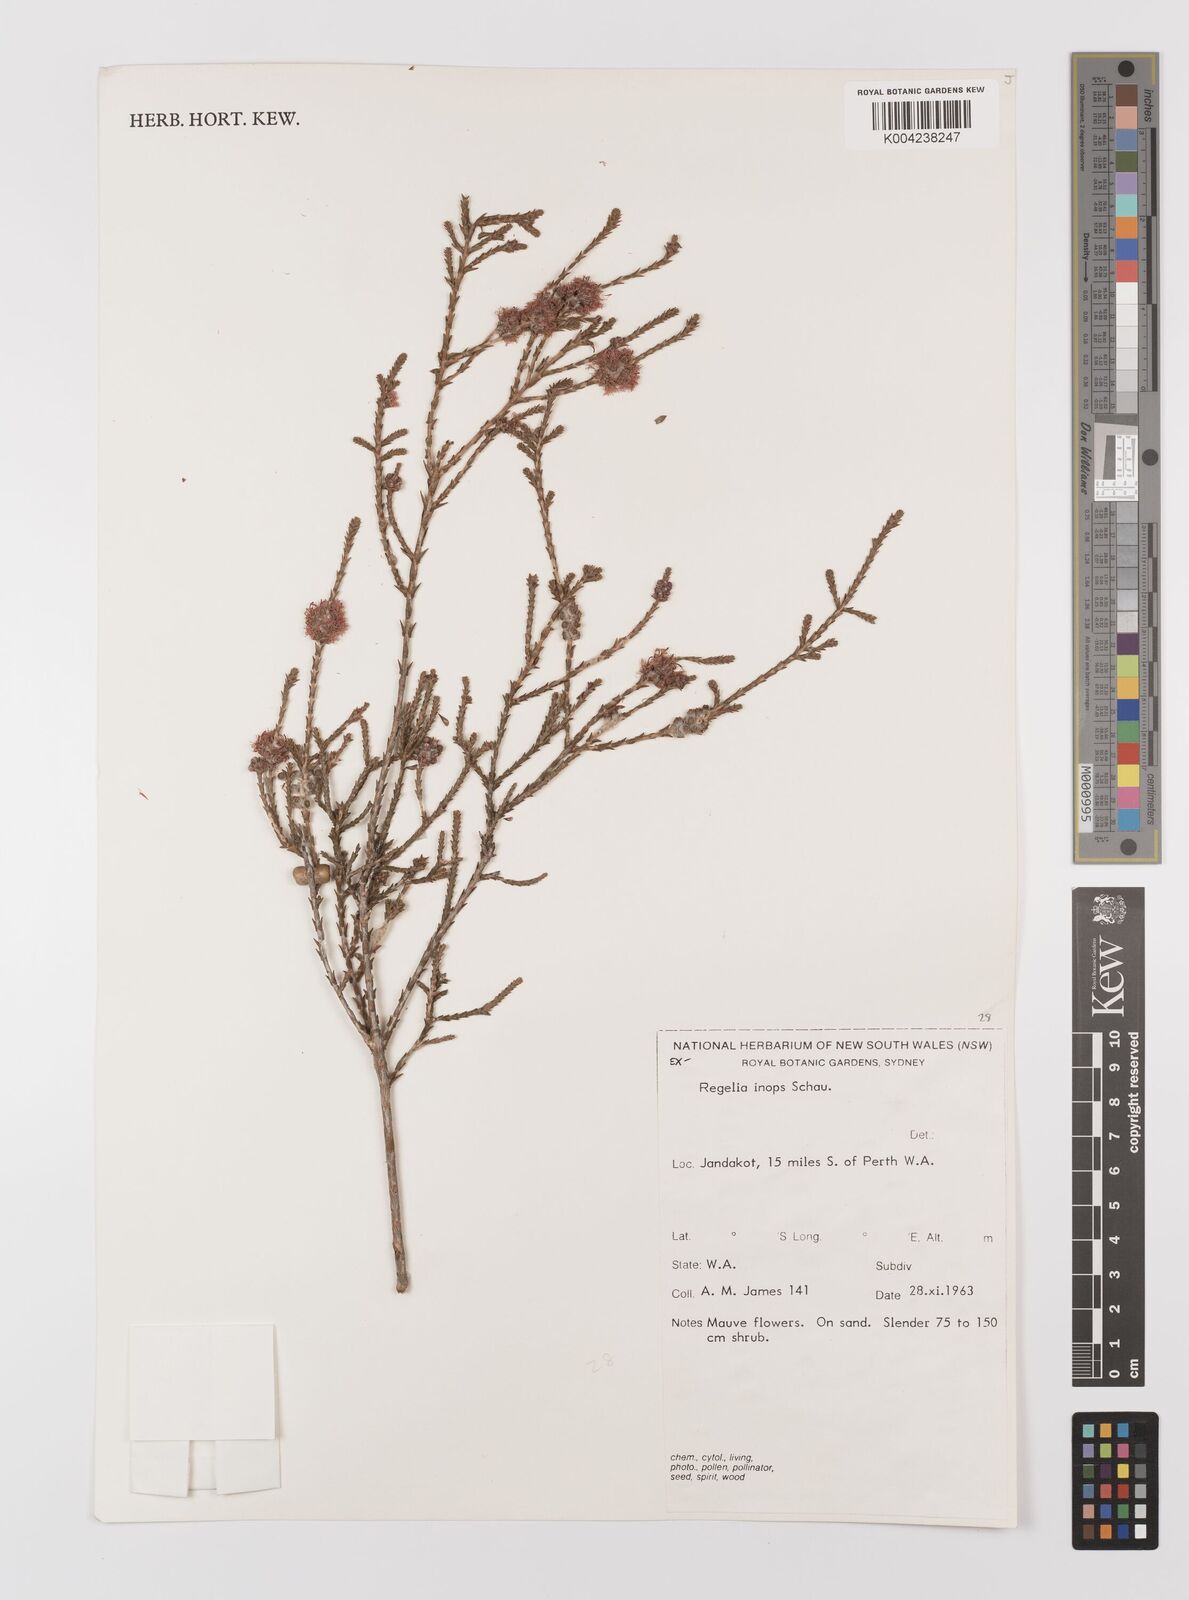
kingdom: Plantae
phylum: Tracheophyta
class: Magnoliopsida
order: Myrtales
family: Myrtaceae
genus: Melaleuca
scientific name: Melaleuca inops
